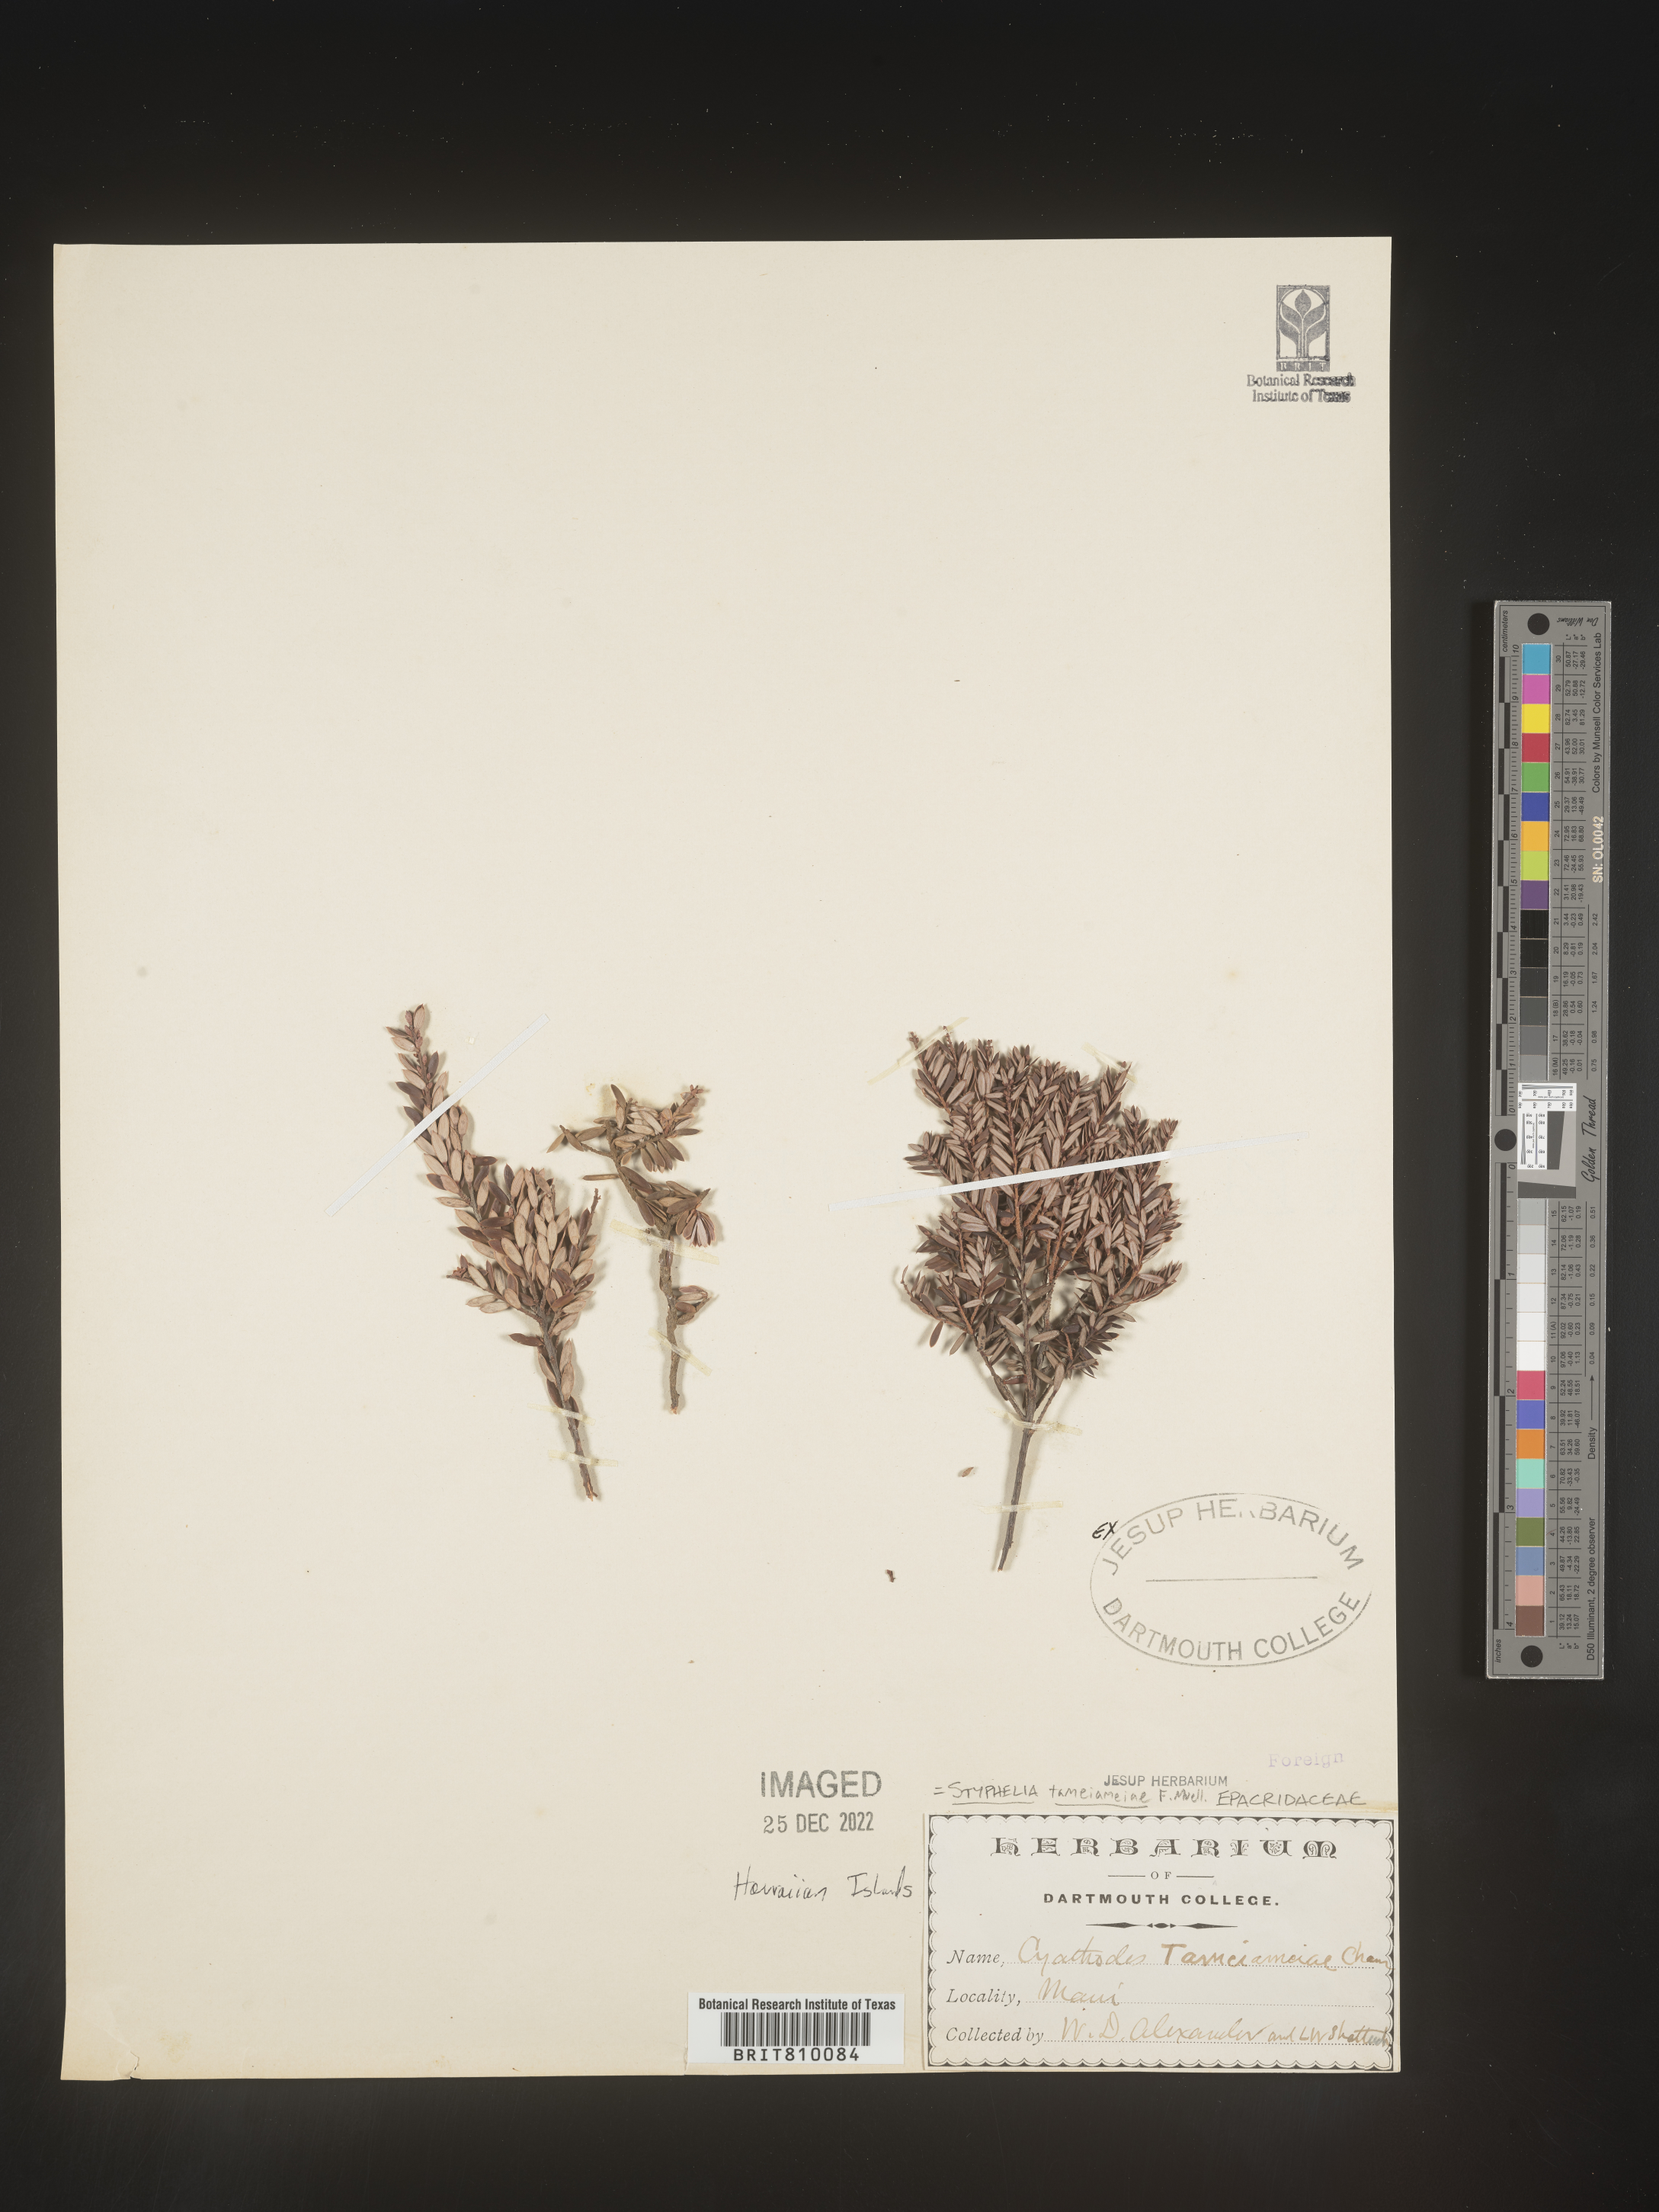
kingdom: Plantae
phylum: Tracheophyta
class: Magnoliopsida
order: Ericales
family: Ericaceae
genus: Styphelia
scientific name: Styphelia
